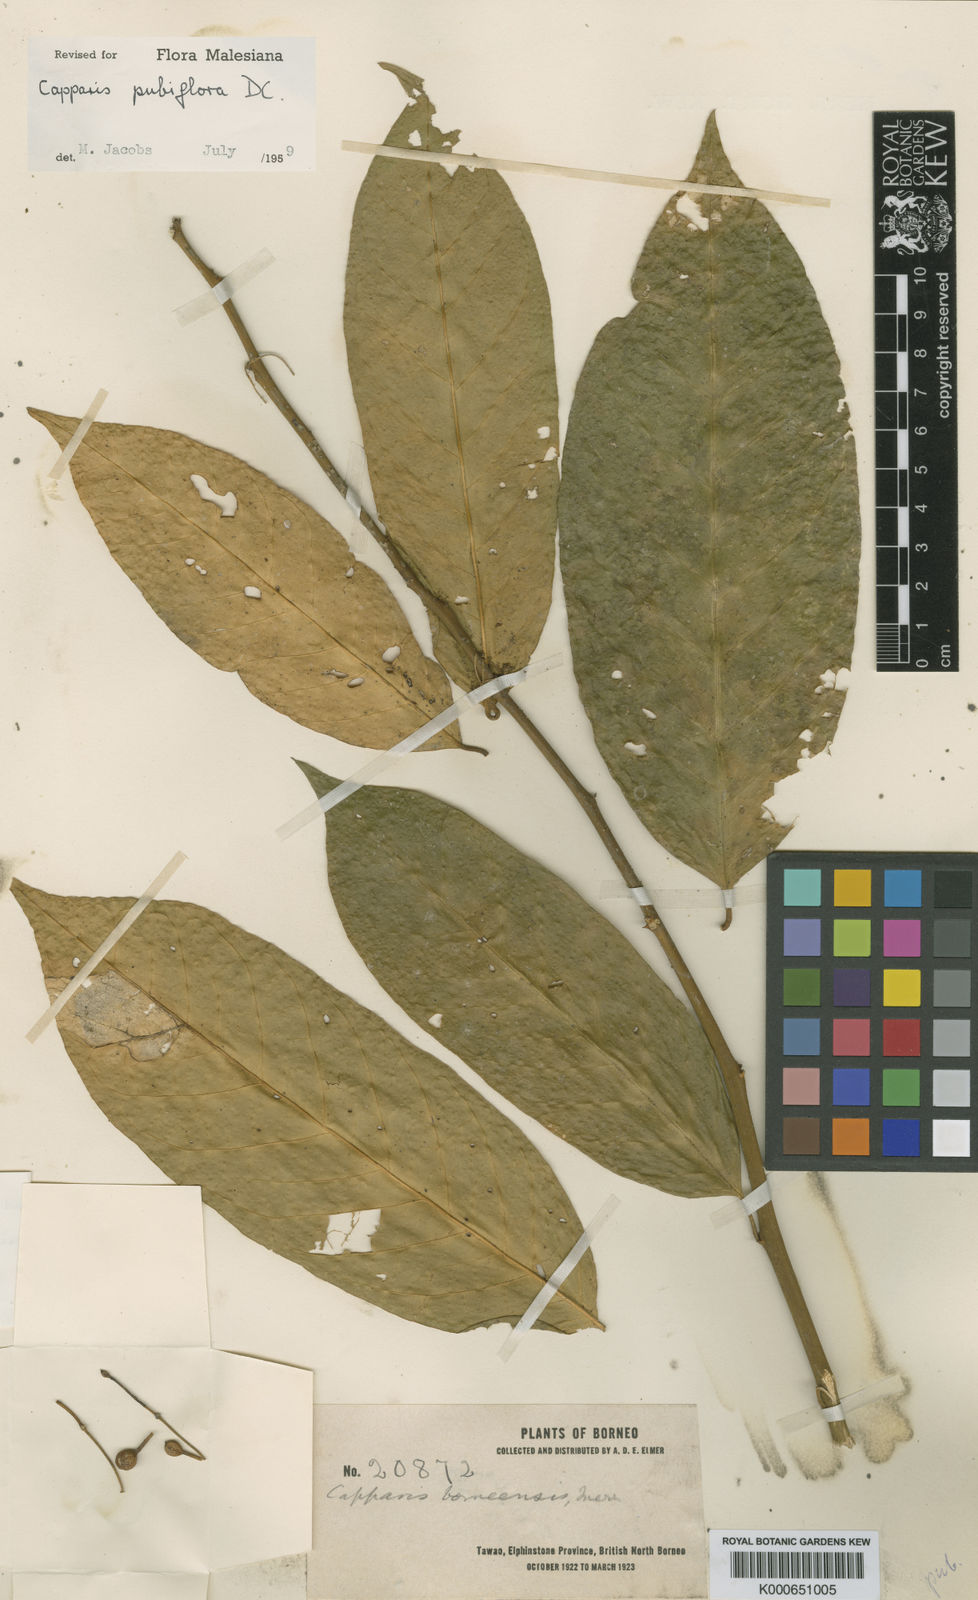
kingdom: Plantae
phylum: Tracheophyta
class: Magnoliopsida
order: Brassicales
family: Capparaceae
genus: Capparis
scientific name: Capparis pubiflora
